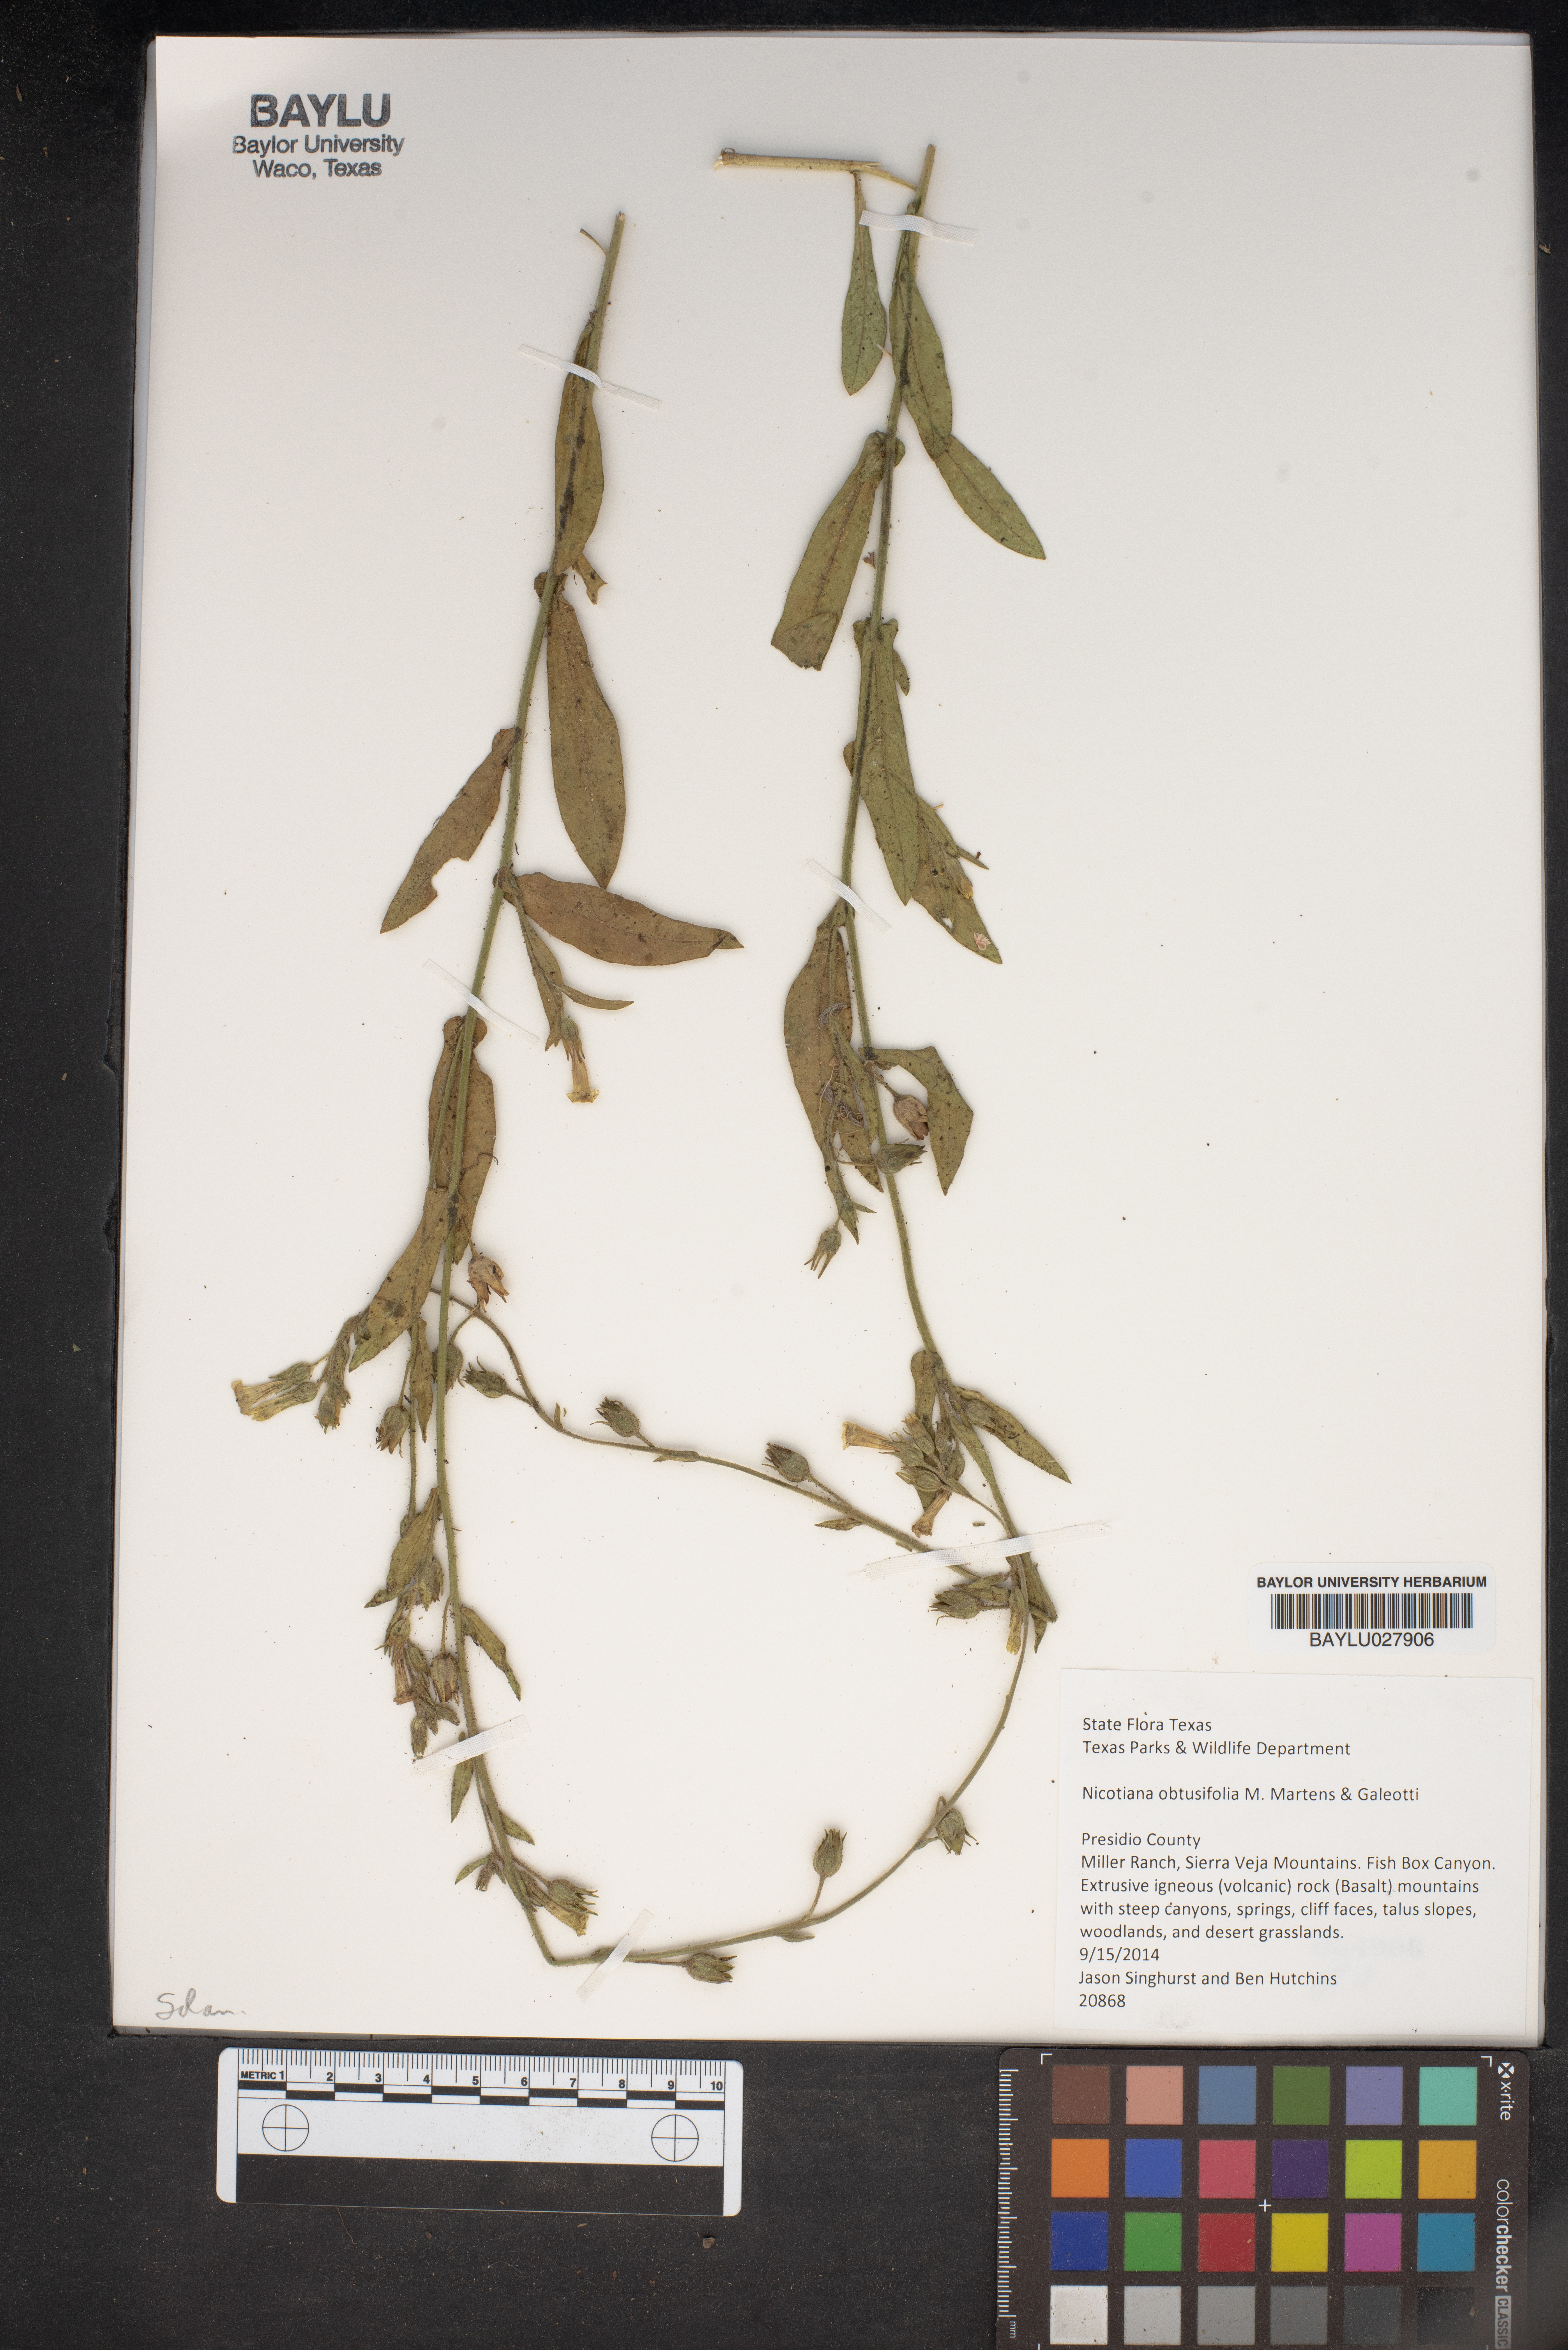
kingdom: Plantae
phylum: Tracheophyta
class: Magnoliopsida
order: Solanales
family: Solanaceae
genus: Nicotiana
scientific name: Nicotiana obtusifolia
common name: Desert tobacco
